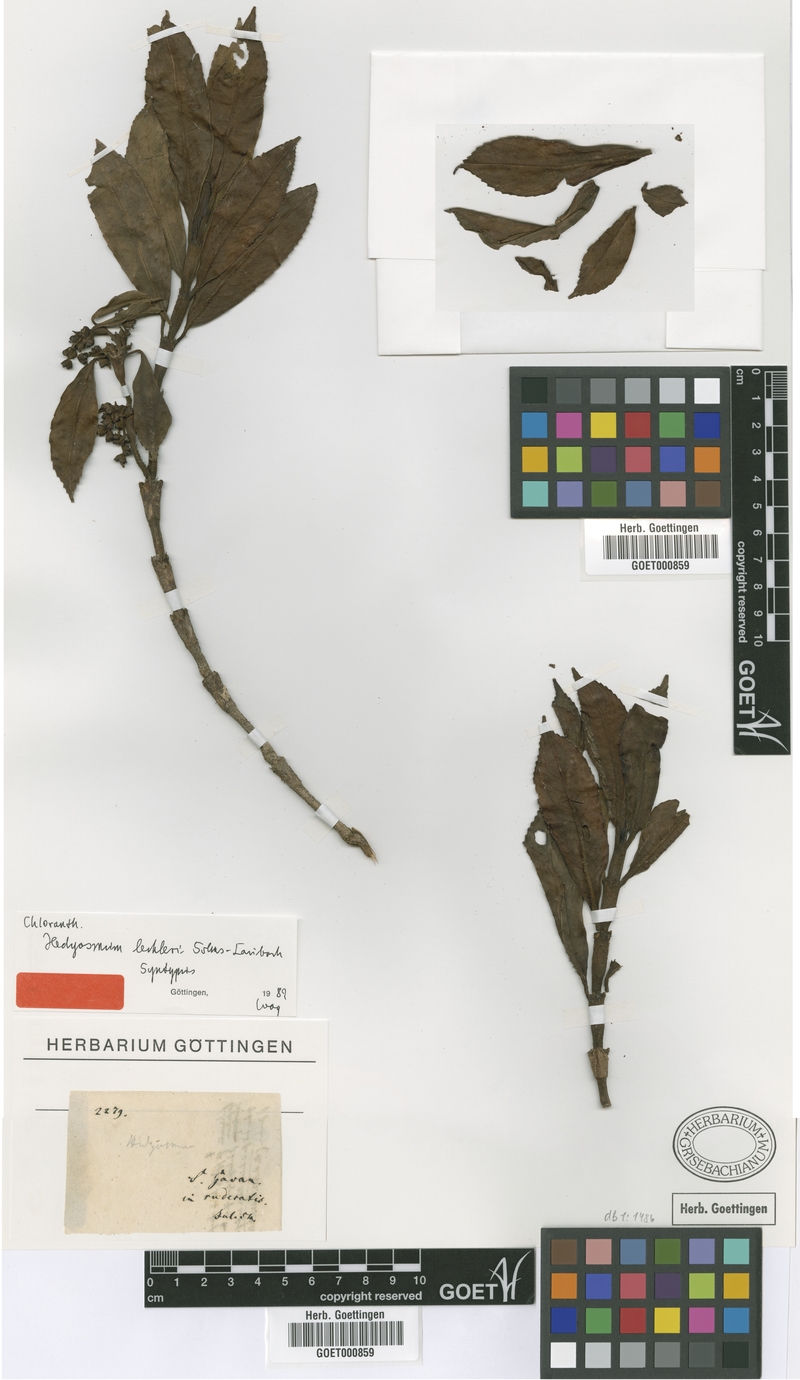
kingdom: Plantae
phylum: Tracheophyta
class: Magnoliopsida
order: Chloranthales
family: Chloranthaceae
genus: Hedyosmum
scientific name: Hedyosmum lechleri
